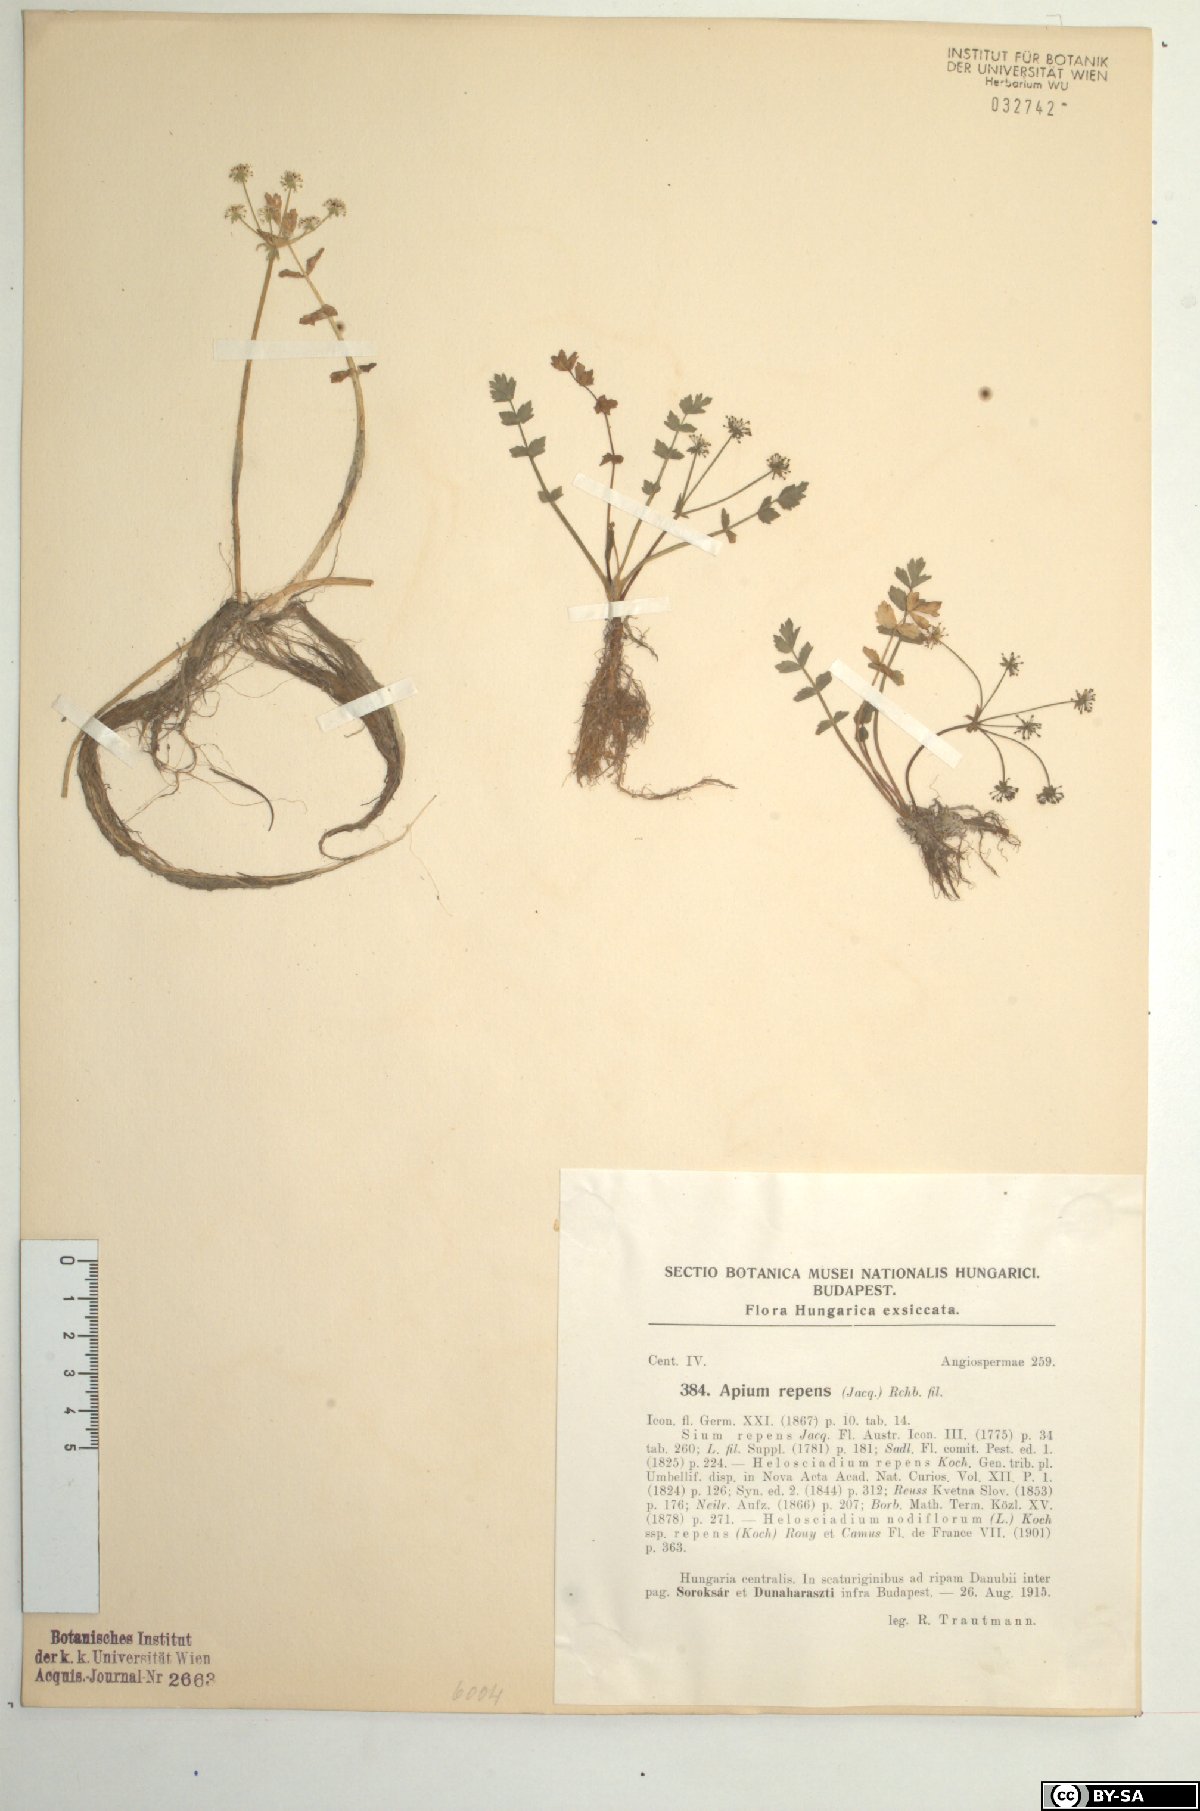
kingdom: Plantae
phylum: Tracheophyta
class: Magnoliopsida
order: Apiales
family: Apiaceae
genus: Helosciadium
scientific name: Helosciadium repens
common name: Creeping marshwort
